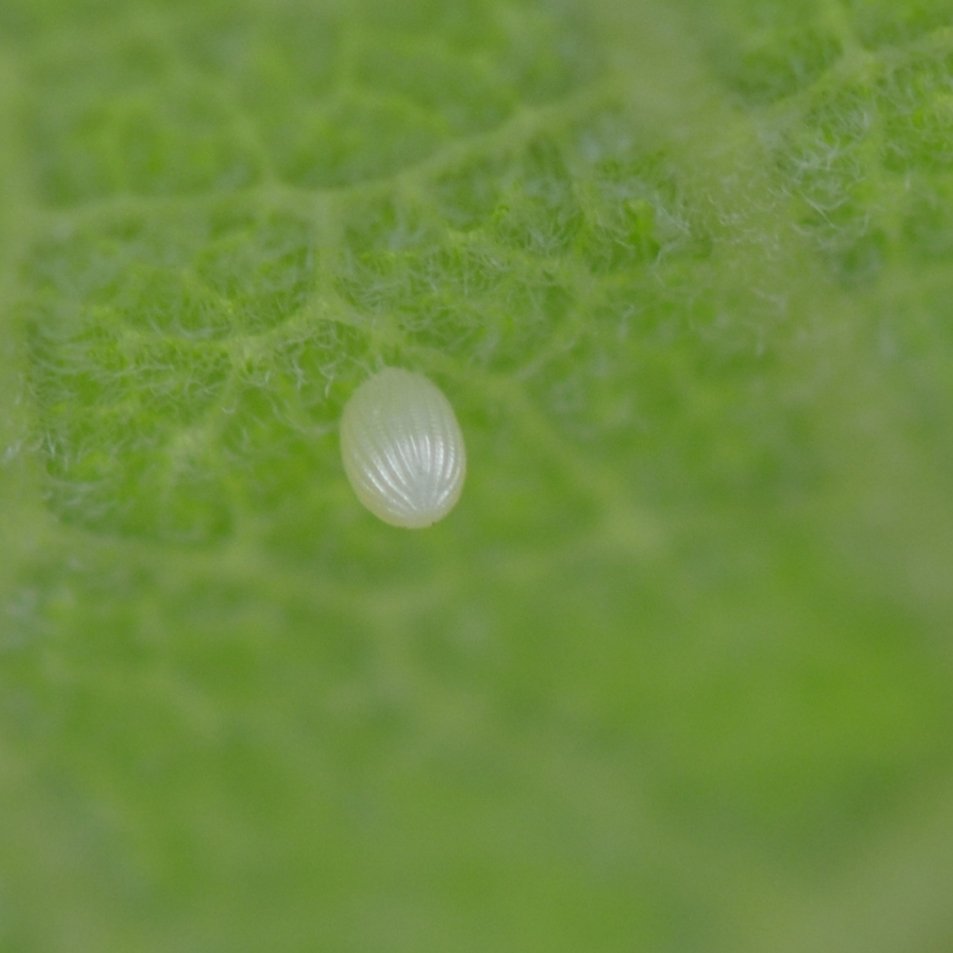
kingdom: Animalia
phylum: Arthropoda
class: Insecta
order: Lepidoptera
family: Nymphalidae
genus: Danaus
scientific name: Danaus plexippus
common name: Monarch
